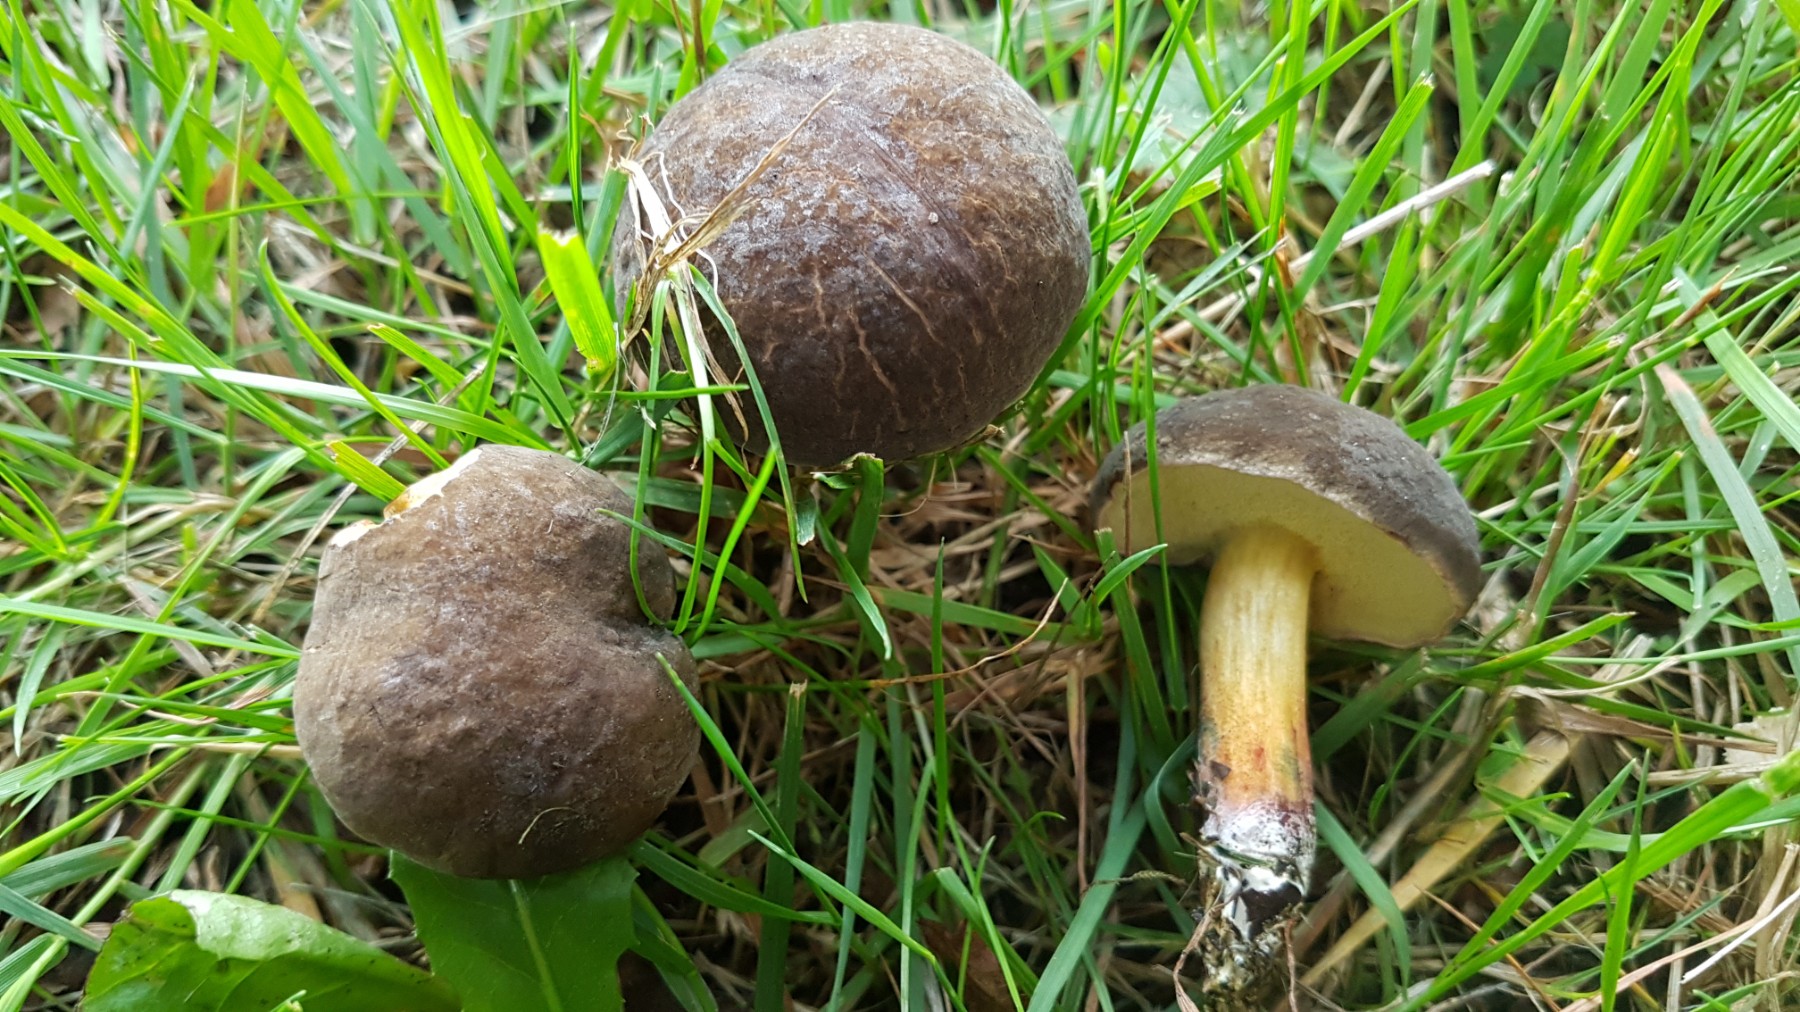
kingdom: Fungi
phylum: Basidiomycota
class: Agaricomycetes
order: Boletales
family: Boletaceae
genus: Xerocomellus
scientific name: Xerocomellus pruinatus
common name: dugget rørhat
